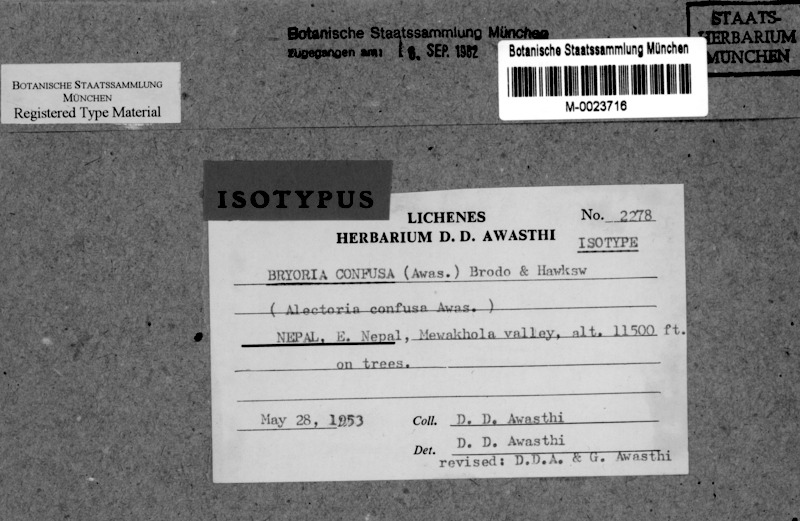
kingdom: Fungi
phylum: Ascomycota
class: Lecanoromycetes
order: Lecanorales
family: Parmeliaceae
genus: Bryoria
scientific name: Bryoria confusa
